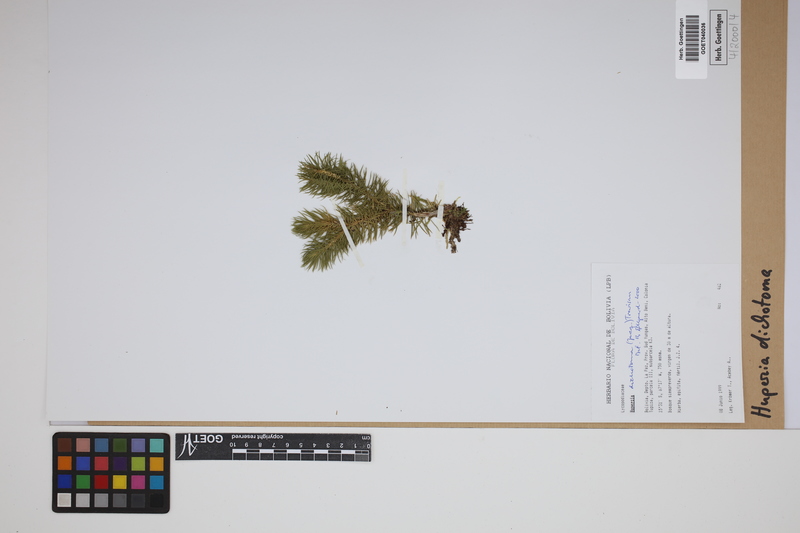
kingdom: Plantae
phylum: Tracheophyta
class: Lycopodiopsida
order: Lycopodiales
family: Lycopodiaceae
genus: Phlegmariurus
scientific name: Phlegmariurus dichotomus
